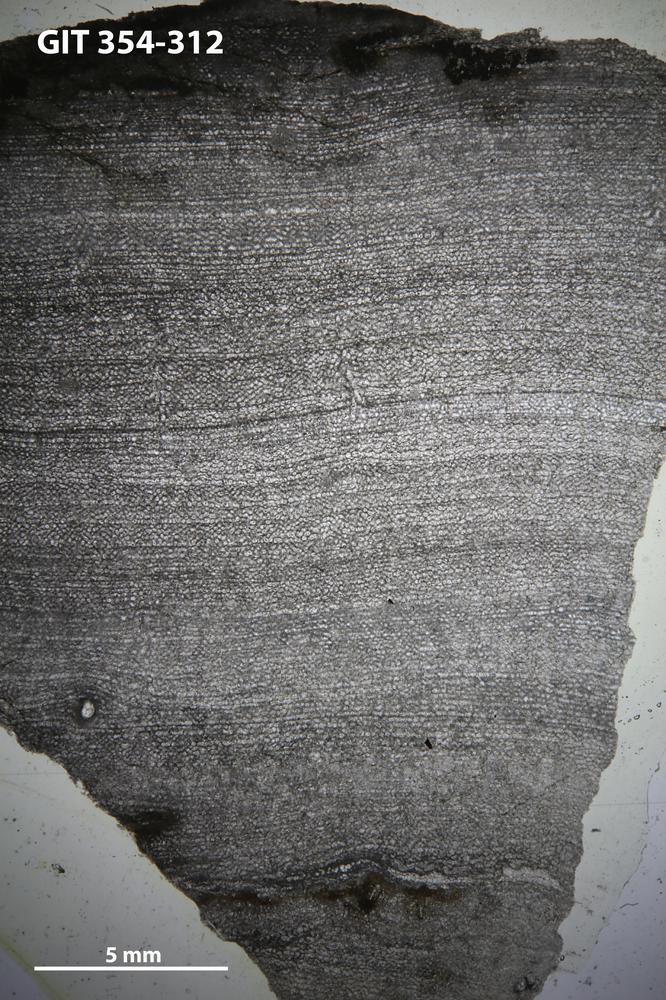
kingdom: Animalia
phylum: Porifera
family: Ecclimadictyidae
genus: Ecclimadictyon
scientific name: Ecclimadictyon Clathrodictyon microvesiculosum
